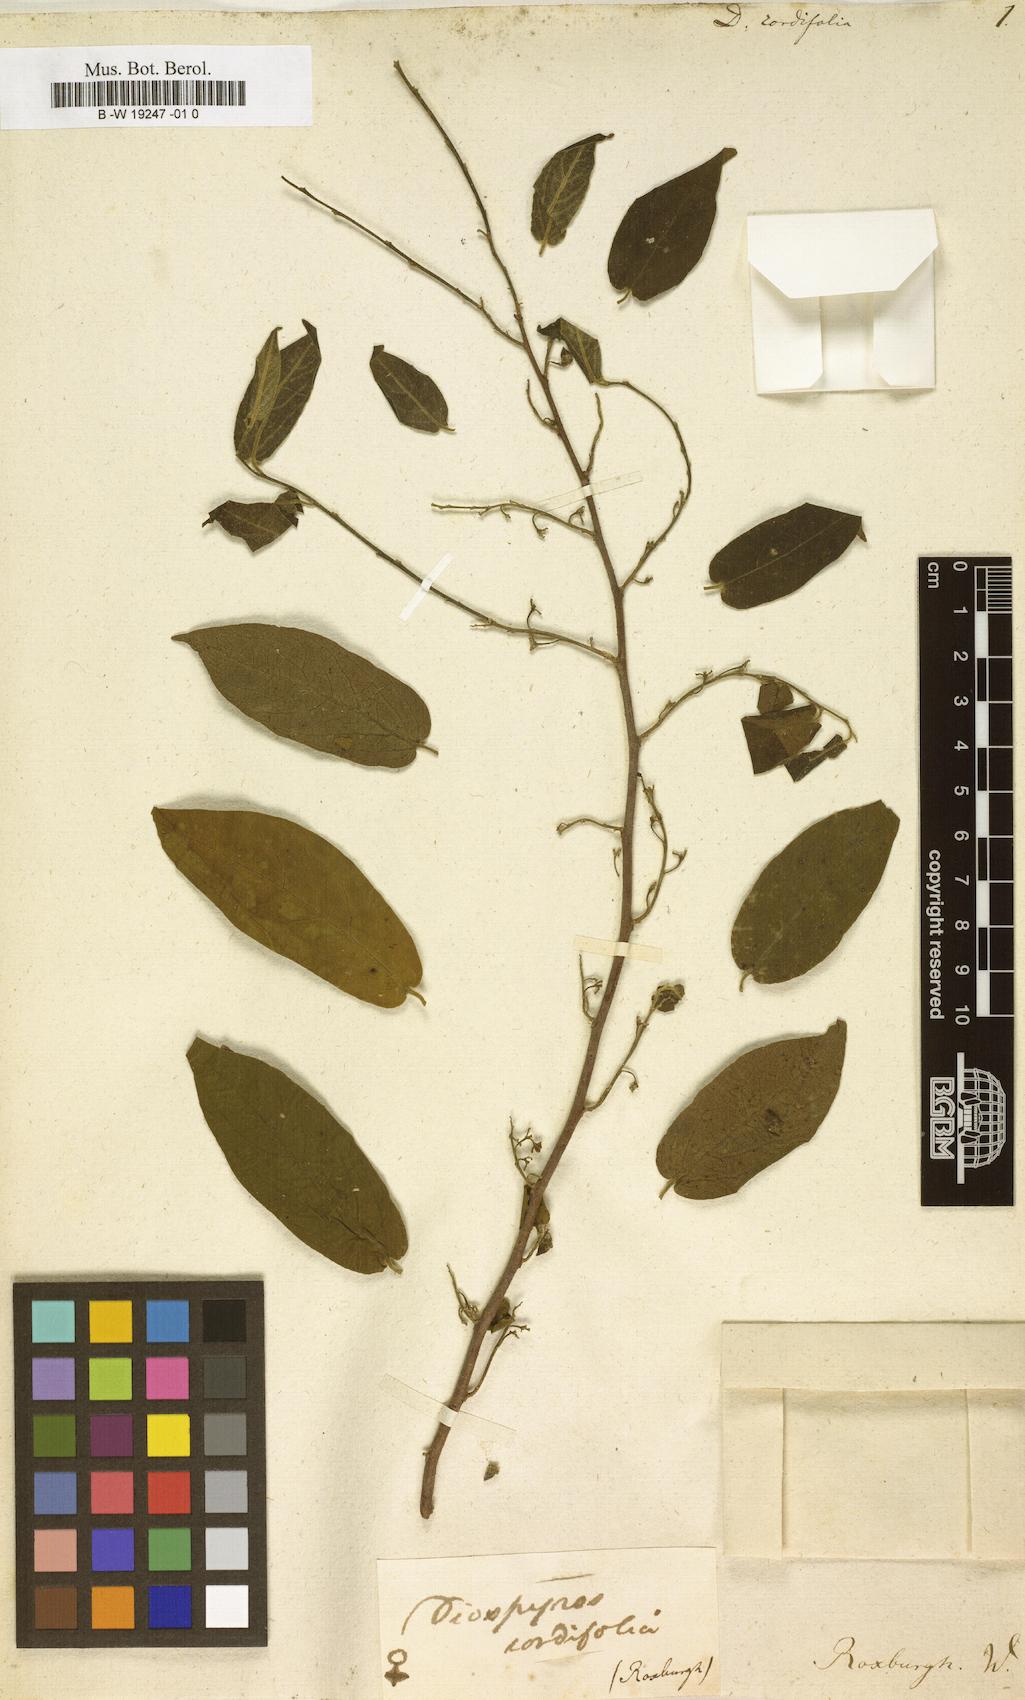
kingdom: Plantae
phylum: Tracheophyta
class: Magnoliopsida
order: Ericales
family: Ebenaceae
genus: Diospyros
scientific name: Diospyros montana
